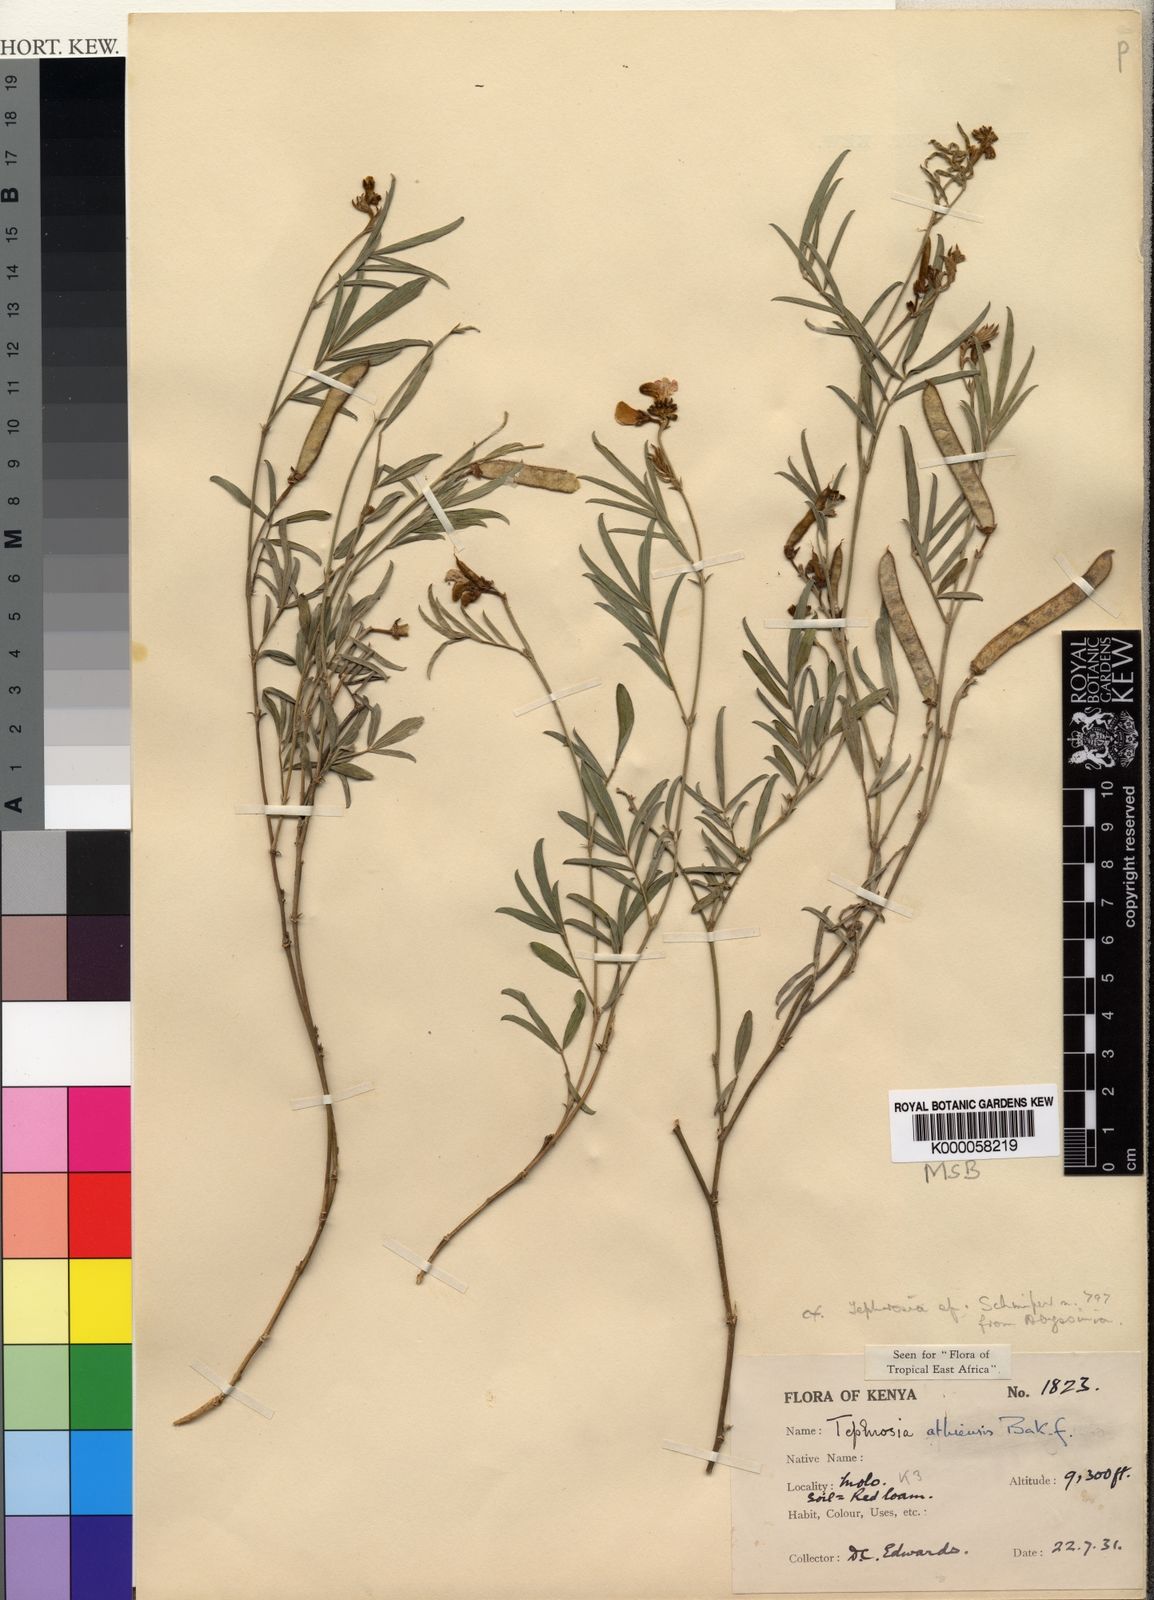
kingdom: Plantae
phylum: Tracheophyta
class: Magnoliopsida
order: Fabales
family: Fabaceae
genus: Tephrosia
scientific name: Tephrosia athiensis
